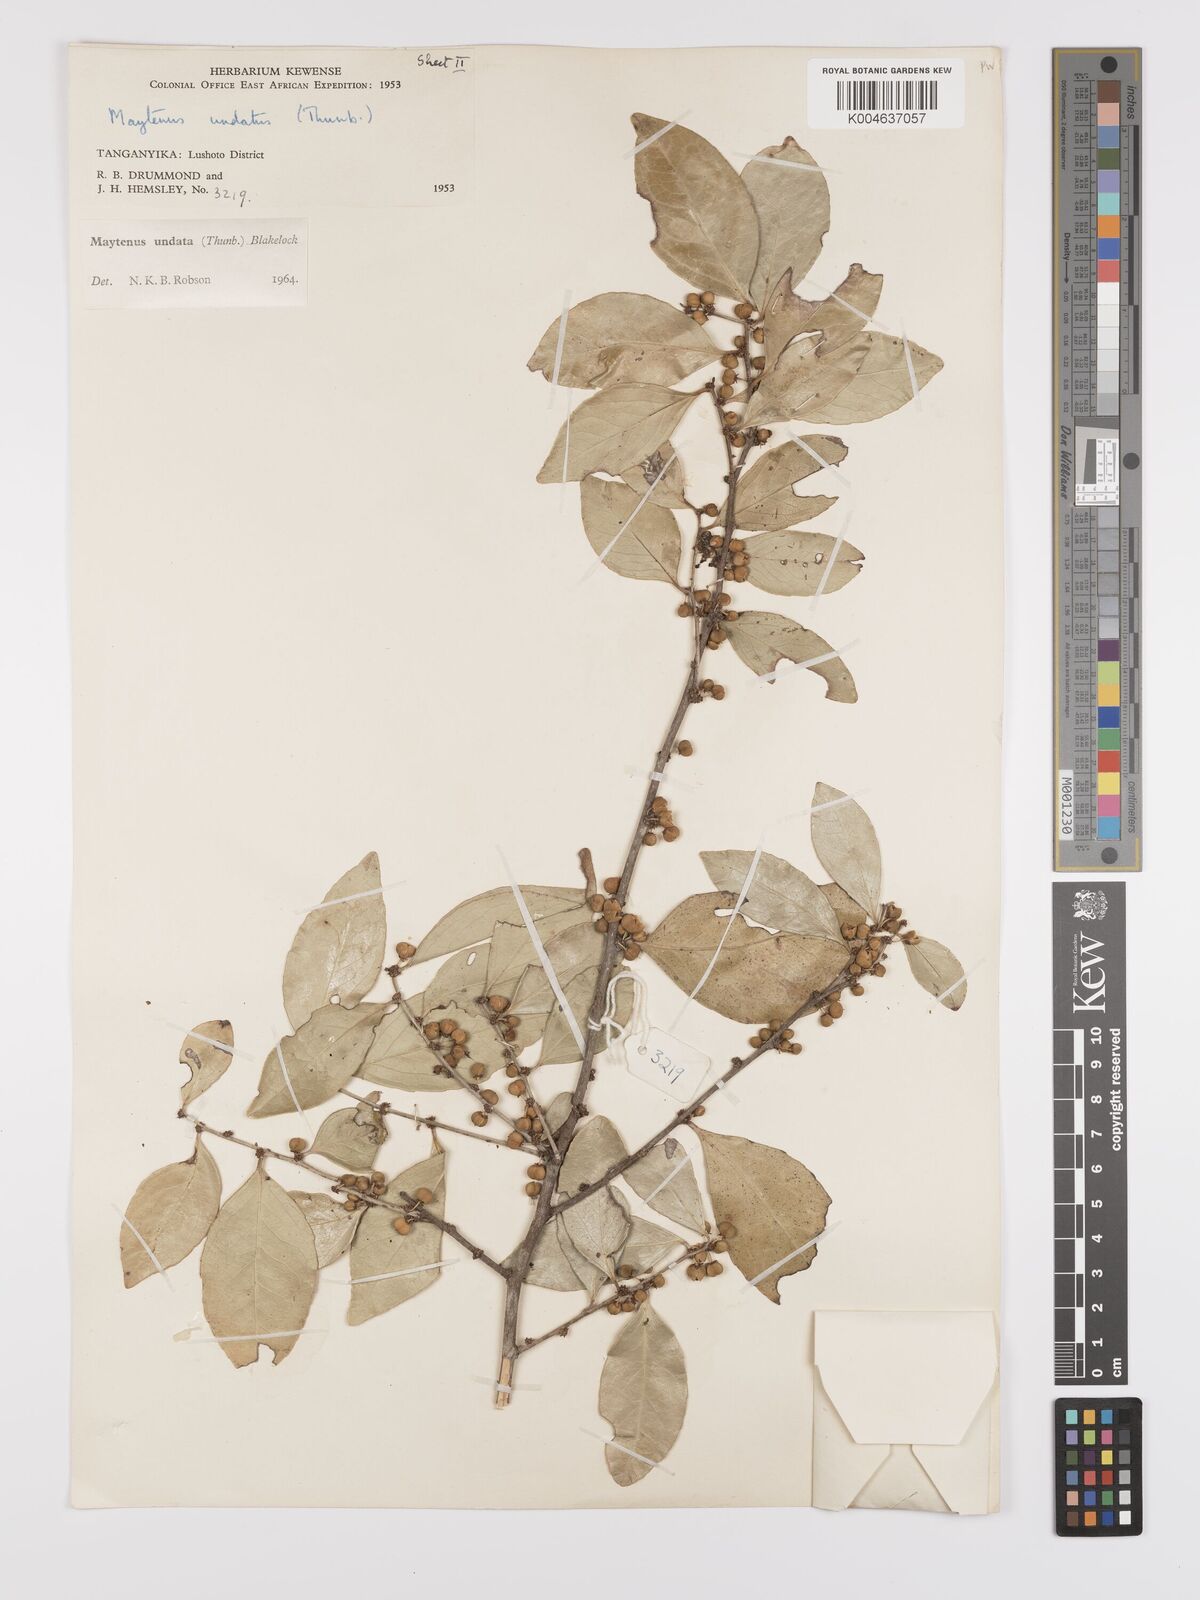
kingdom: Plantae
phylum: Tracheophyta
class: Magnoliopsida
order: Celastrales
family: Celastraceae
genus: Gymnosporia
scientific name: Gymnosporia undata
